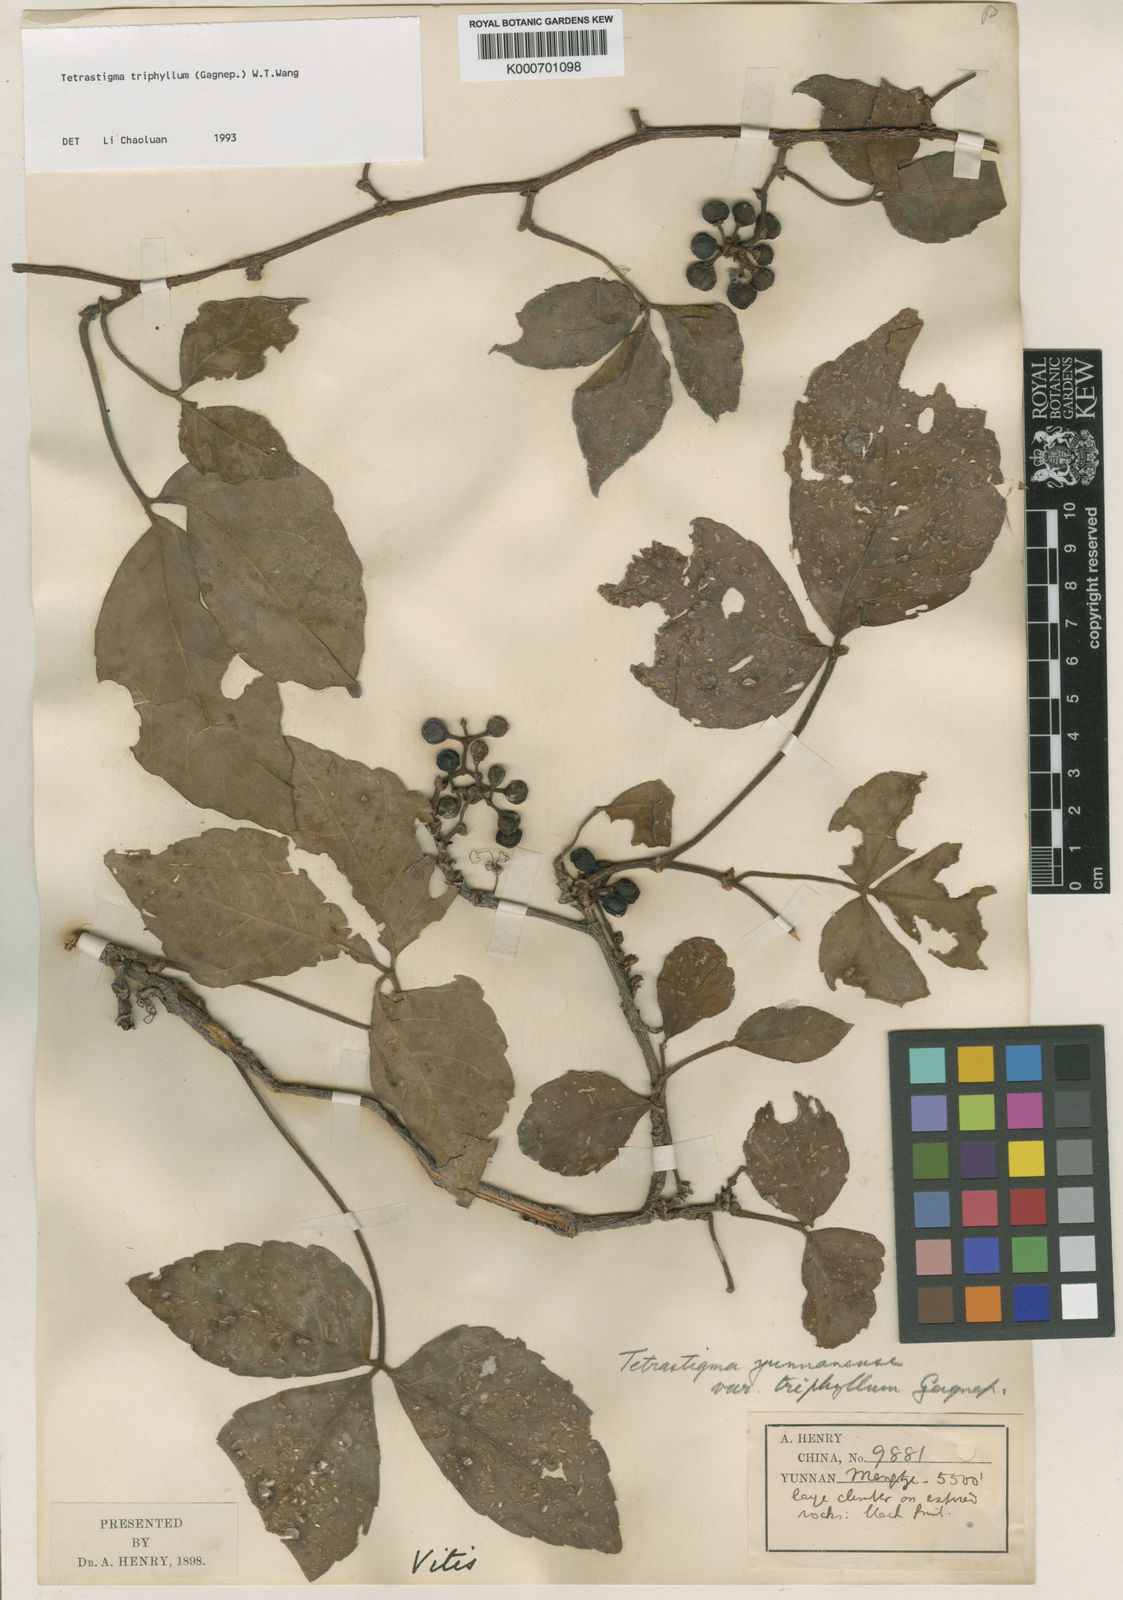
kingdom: Plantae
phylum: Tracheophyta
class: Magnoliopsida
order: Vitales
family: Vitaceae
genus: Tetrastigma
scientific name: Tetrastigma yunnanense
